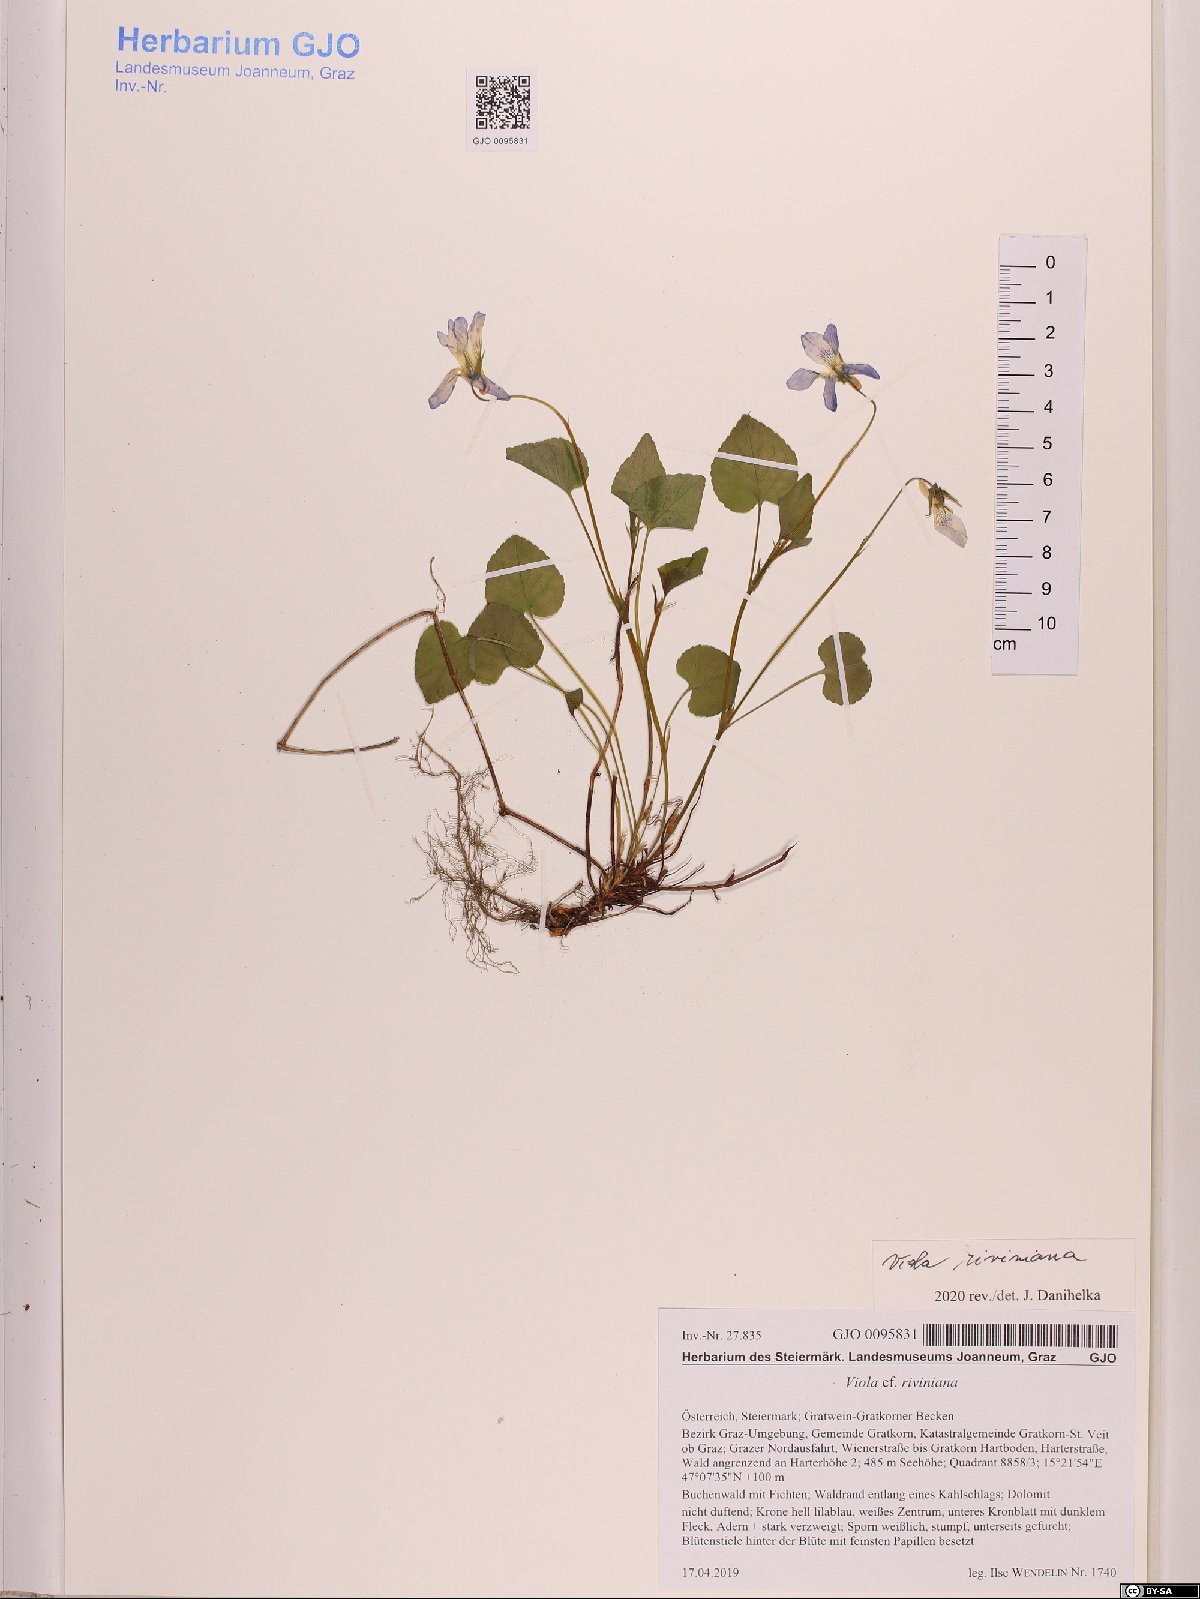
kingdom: Plantae
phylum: Tracheophyta
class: Magnoliopsida
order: Malpighiales
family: Violaceae
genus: Viola
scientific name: Viola riviniana
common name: Common dog-violet
